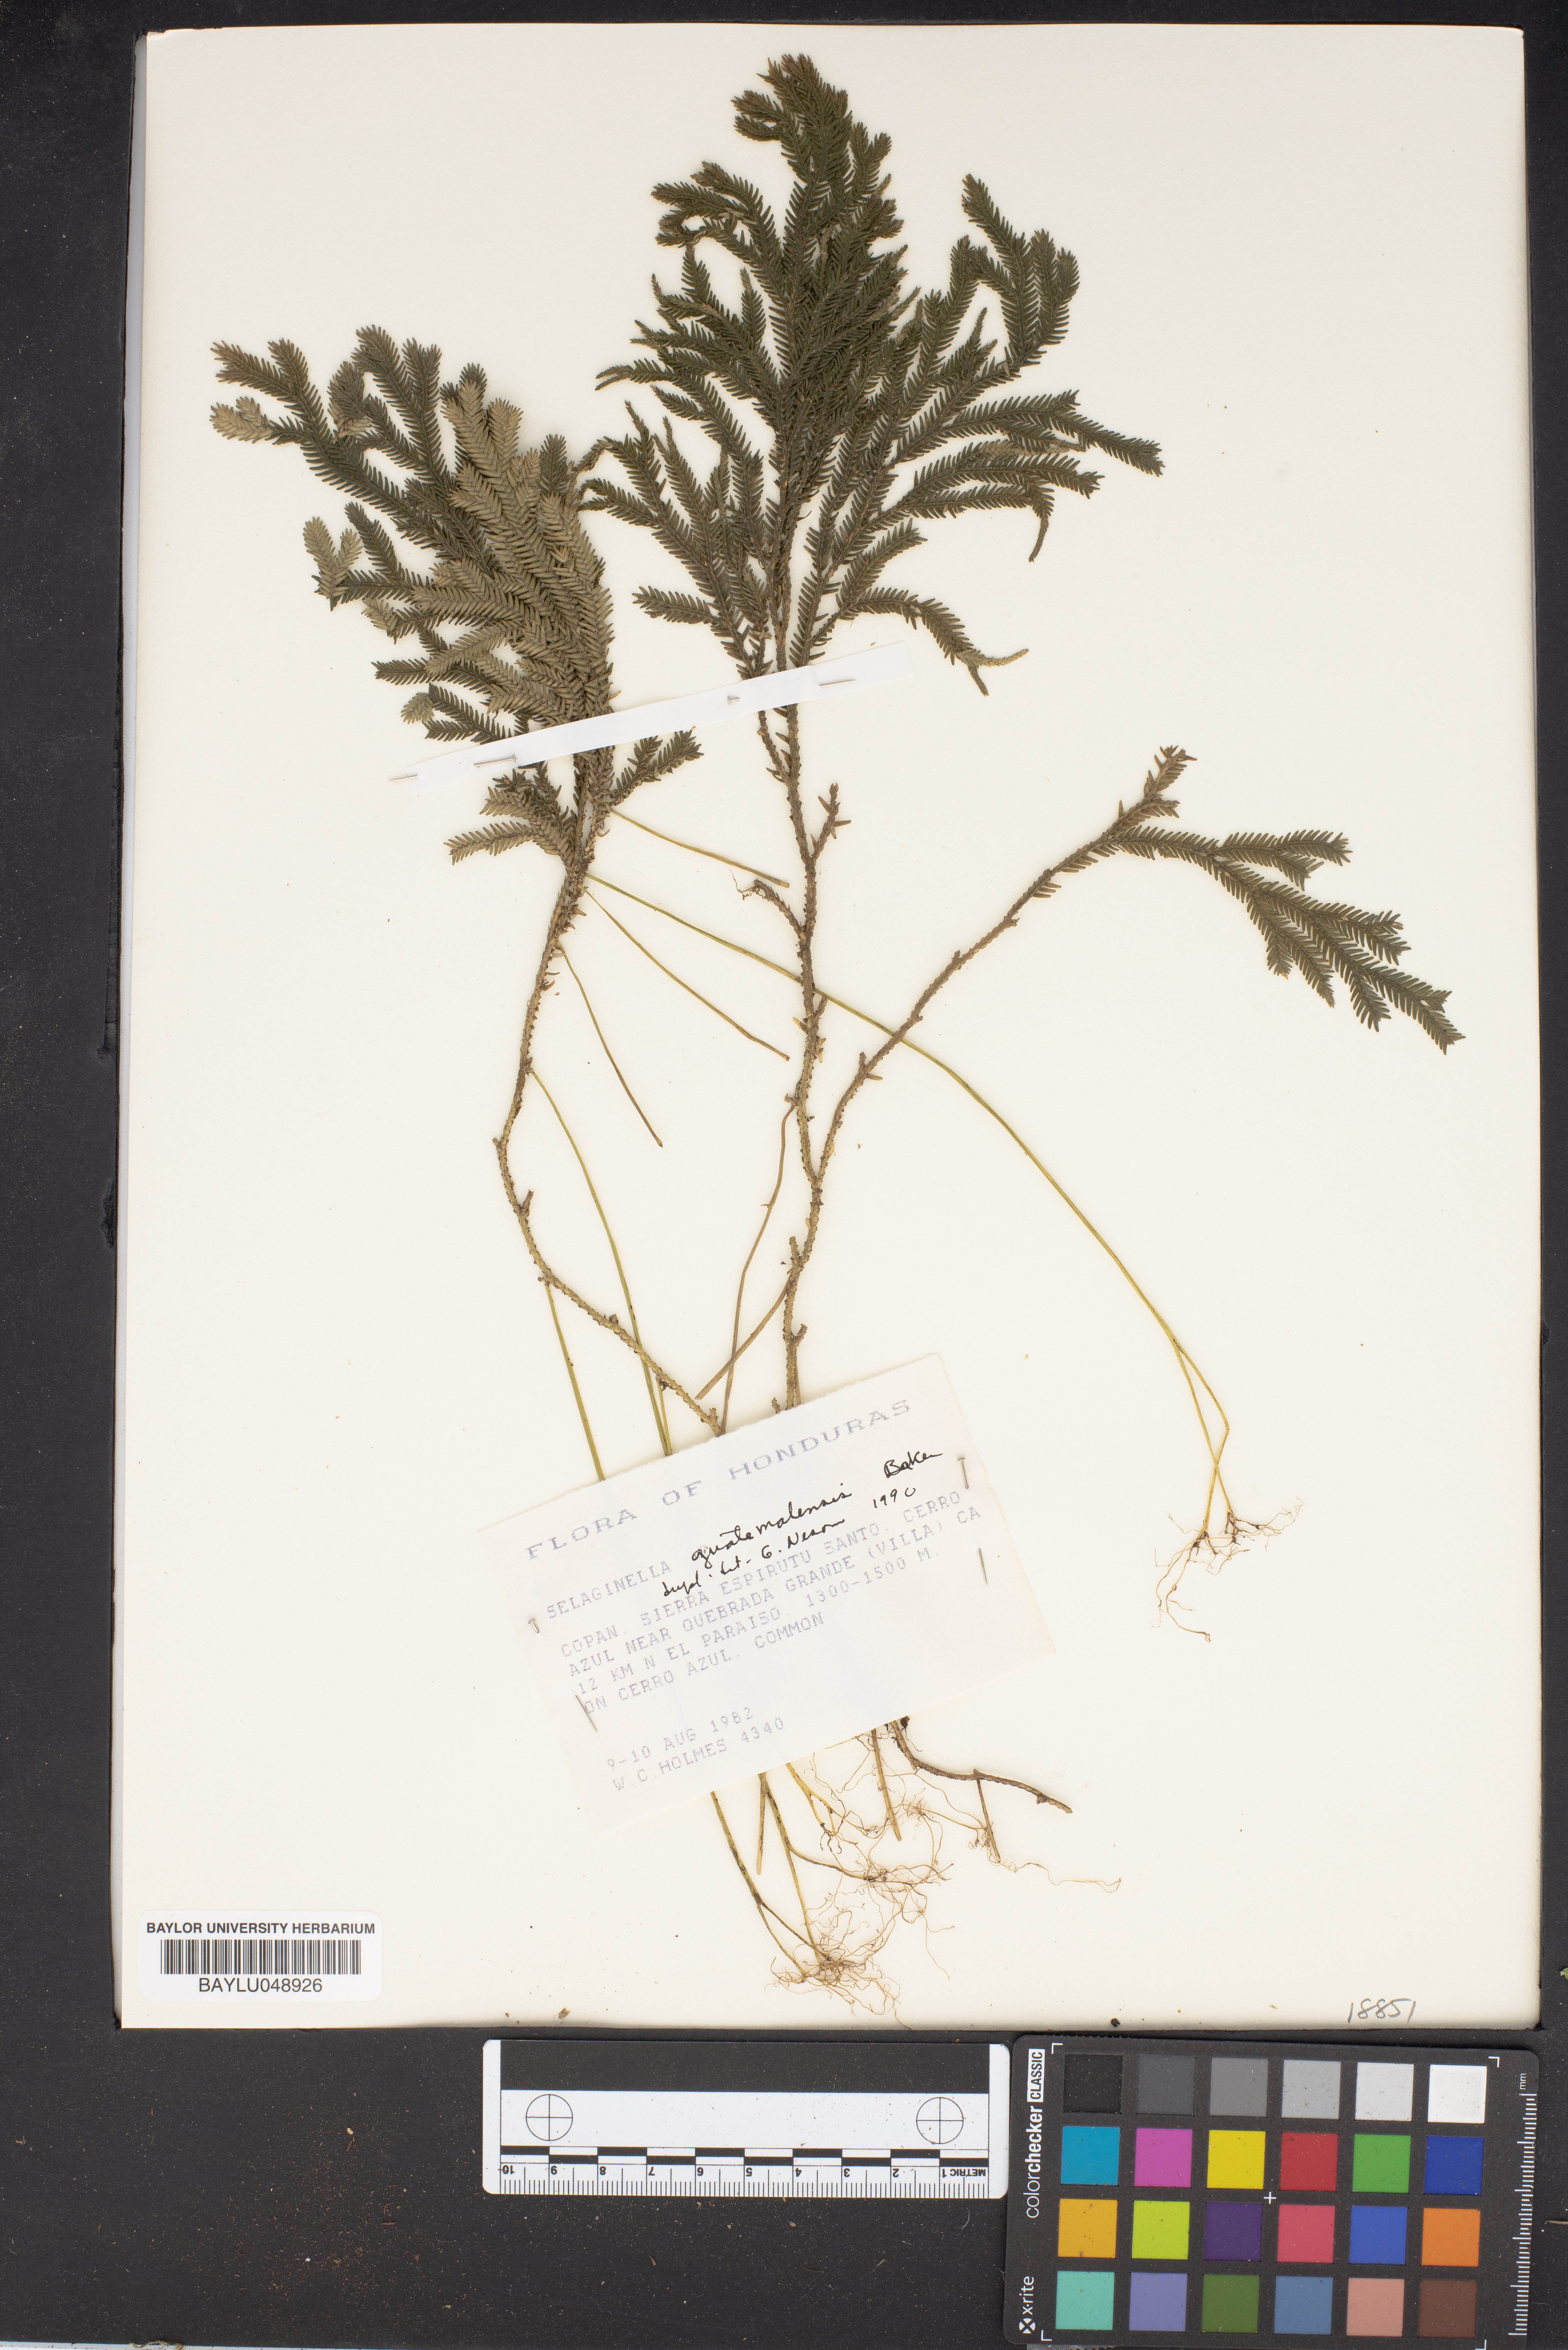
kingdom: Plantae
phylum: Tracheophyta
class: Lycopodiopsida
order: Selaginellales
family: Selaginellaceae
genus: Selaginella
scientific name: Selaginella guatemalensis
